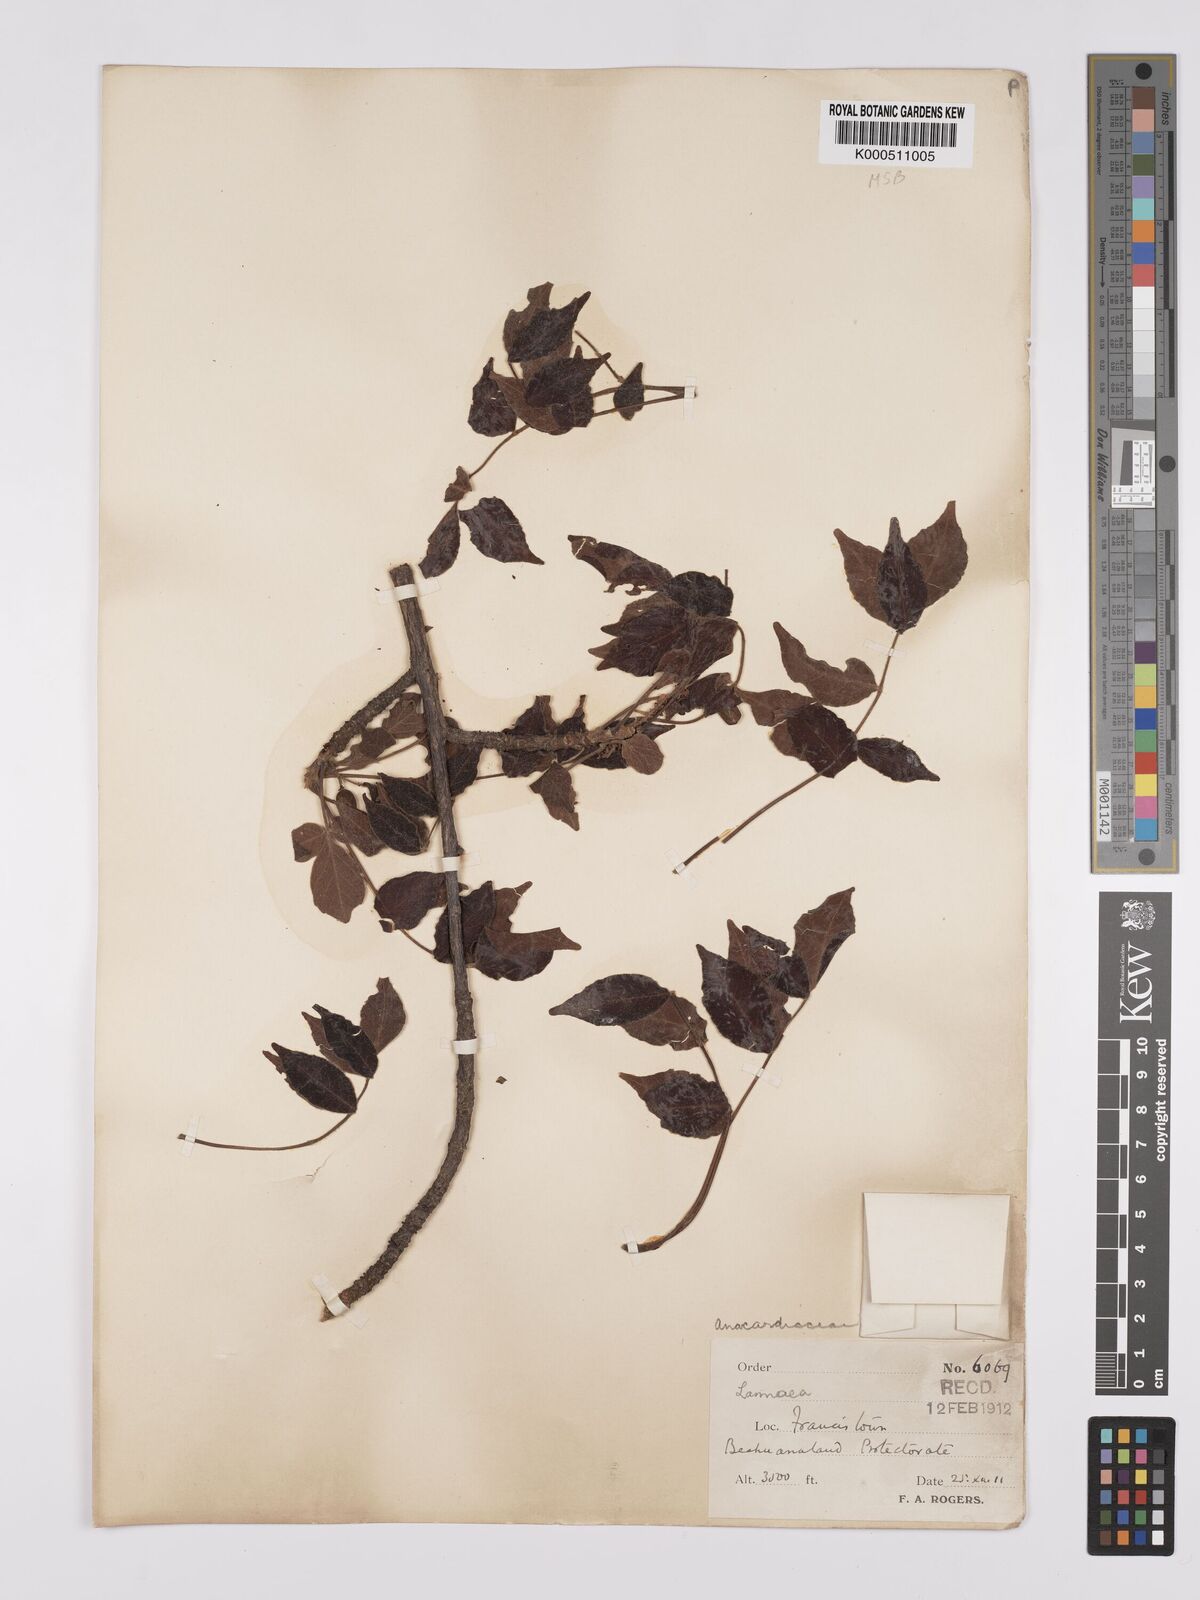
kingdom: Plantae
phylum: Tracheophyta
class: Magnoliopsida
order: Sapindales
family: Anacardiaceae
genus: Lannea
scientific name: Lannea schweinfurthii
